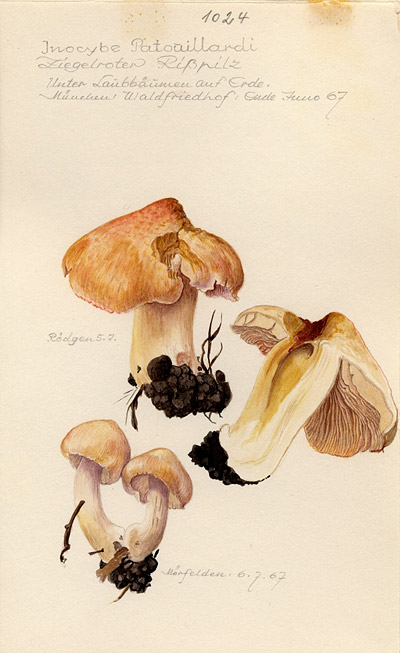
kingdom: Fungi
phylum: Basidiomycota
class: Agaricomycetes
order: Agaricales
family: Inocybaceae
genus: Inosperma
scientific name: Inosperma erubescens
